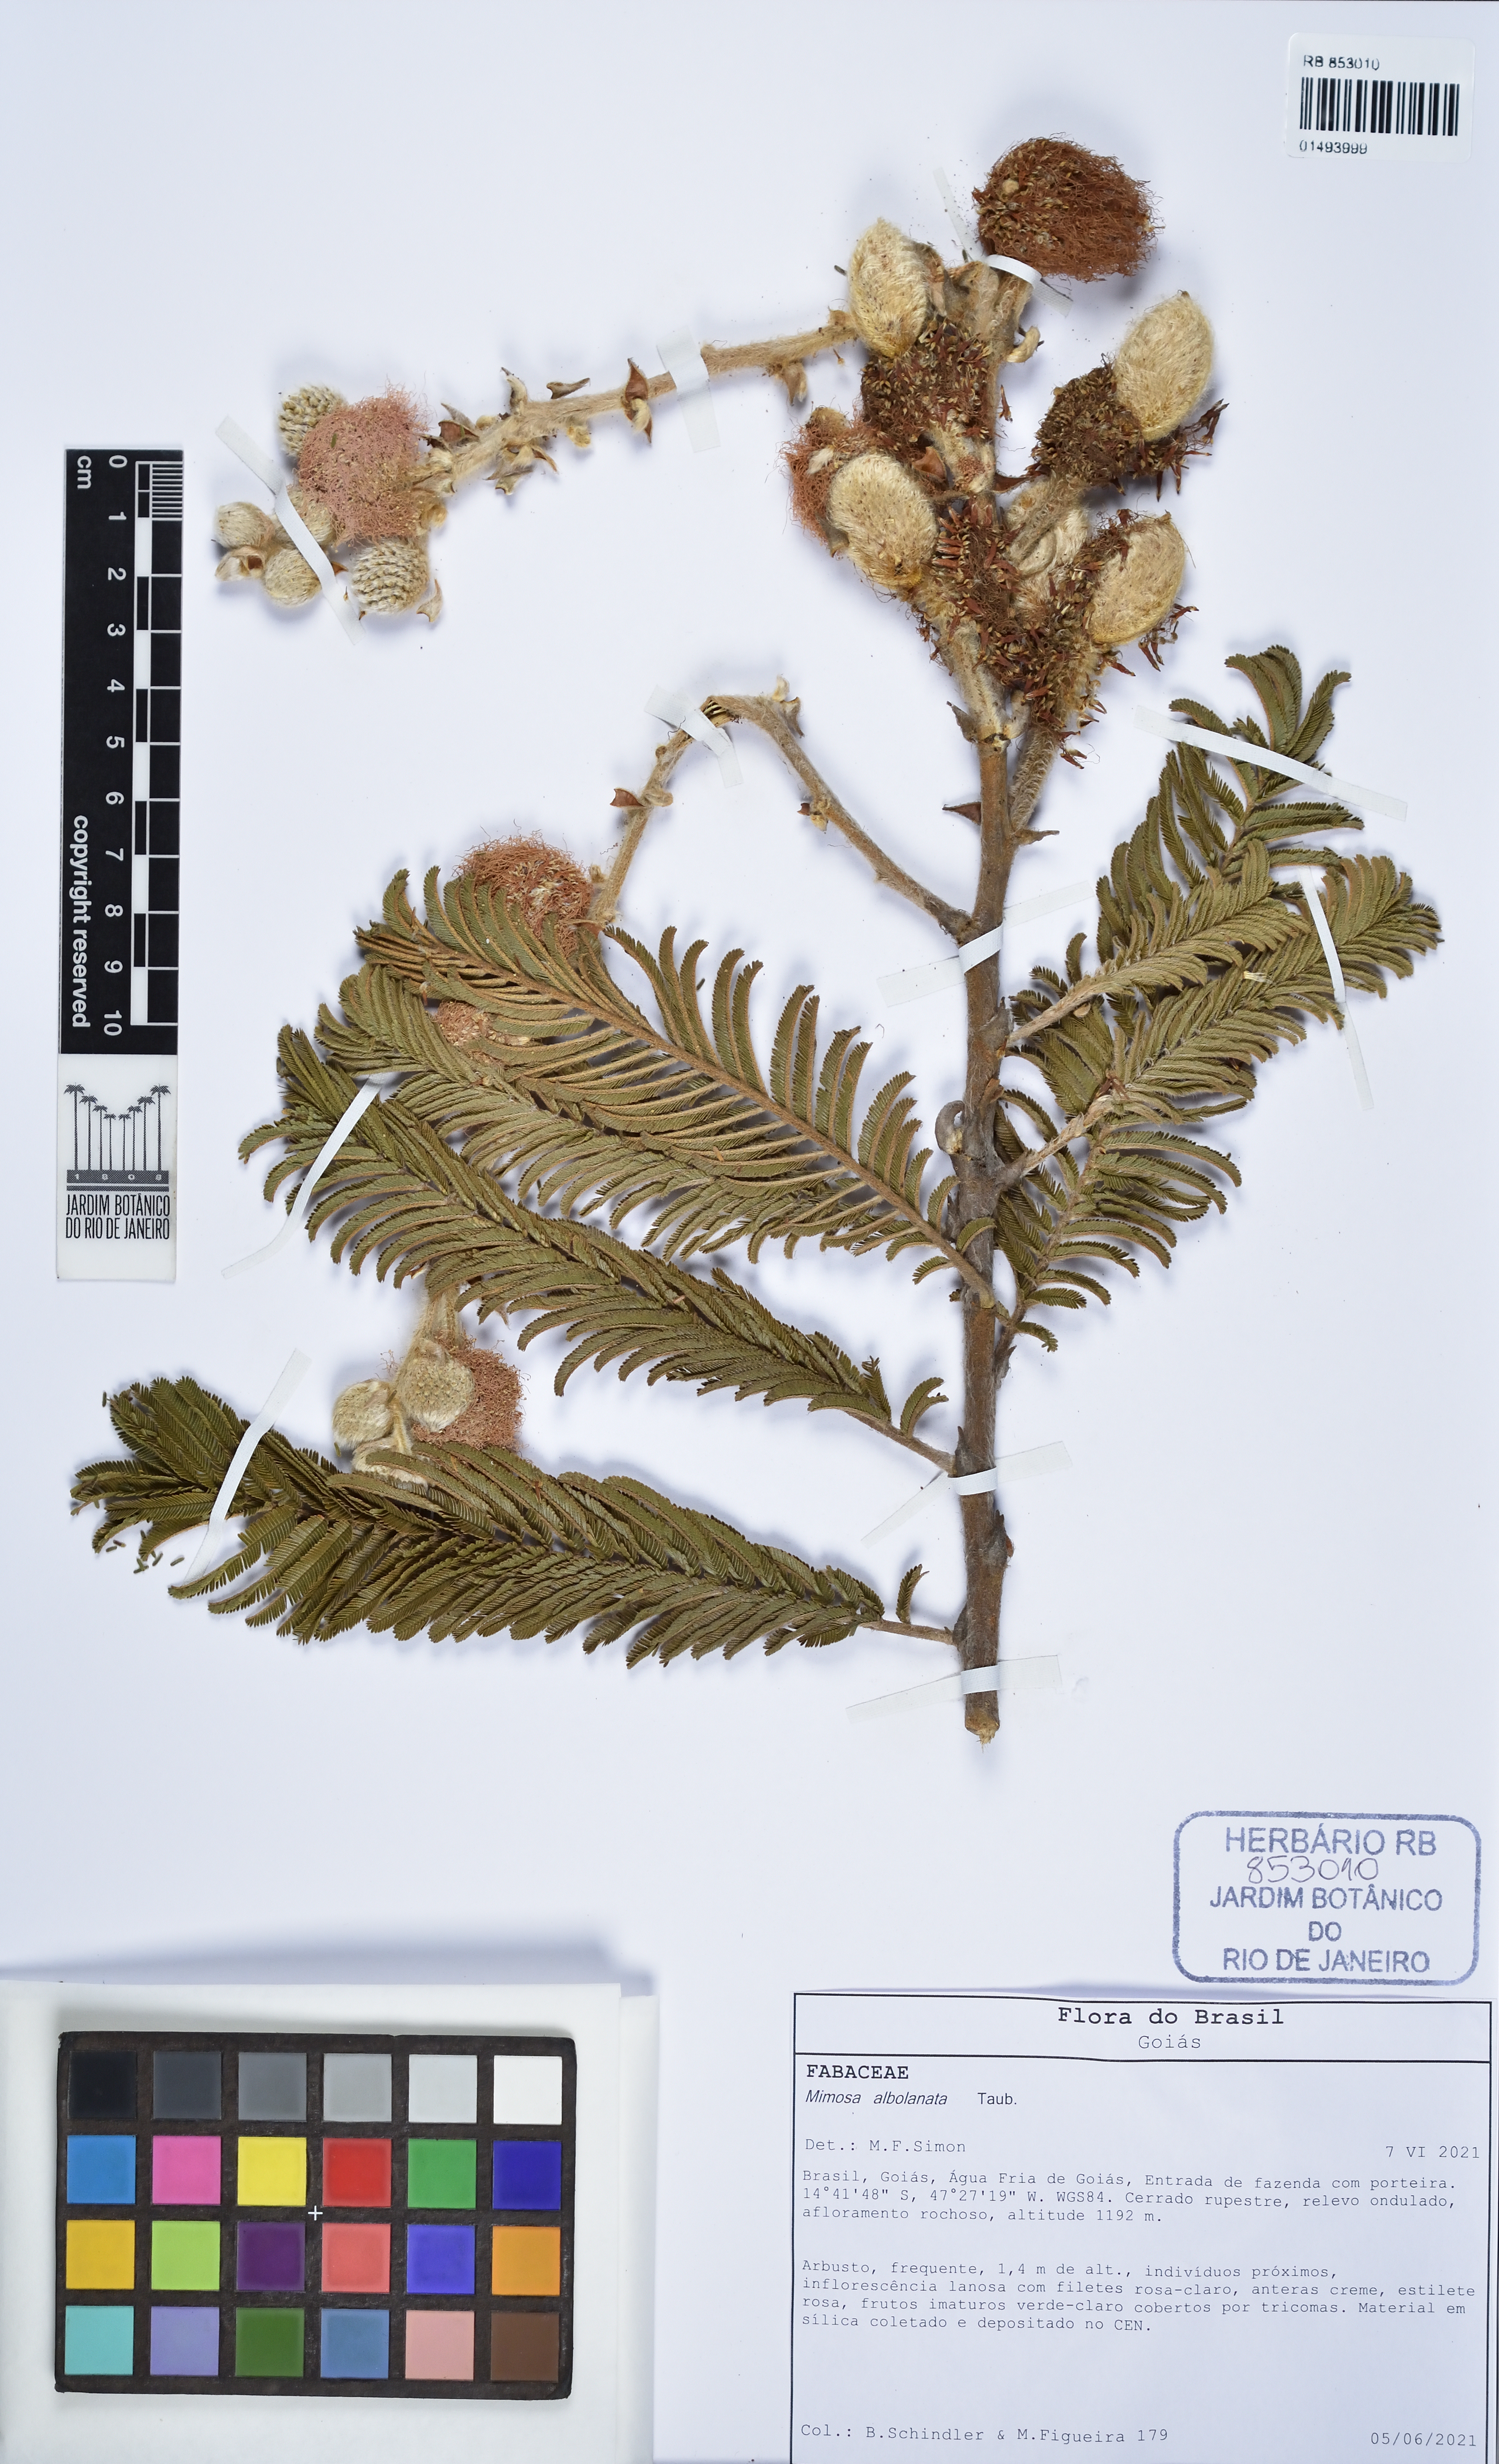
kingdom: Plantae
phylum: Tracheophyta
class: Magnoliopsida
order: Fabales
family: Fabaceae
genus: Mimosa
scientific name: Mimosa albolanata
